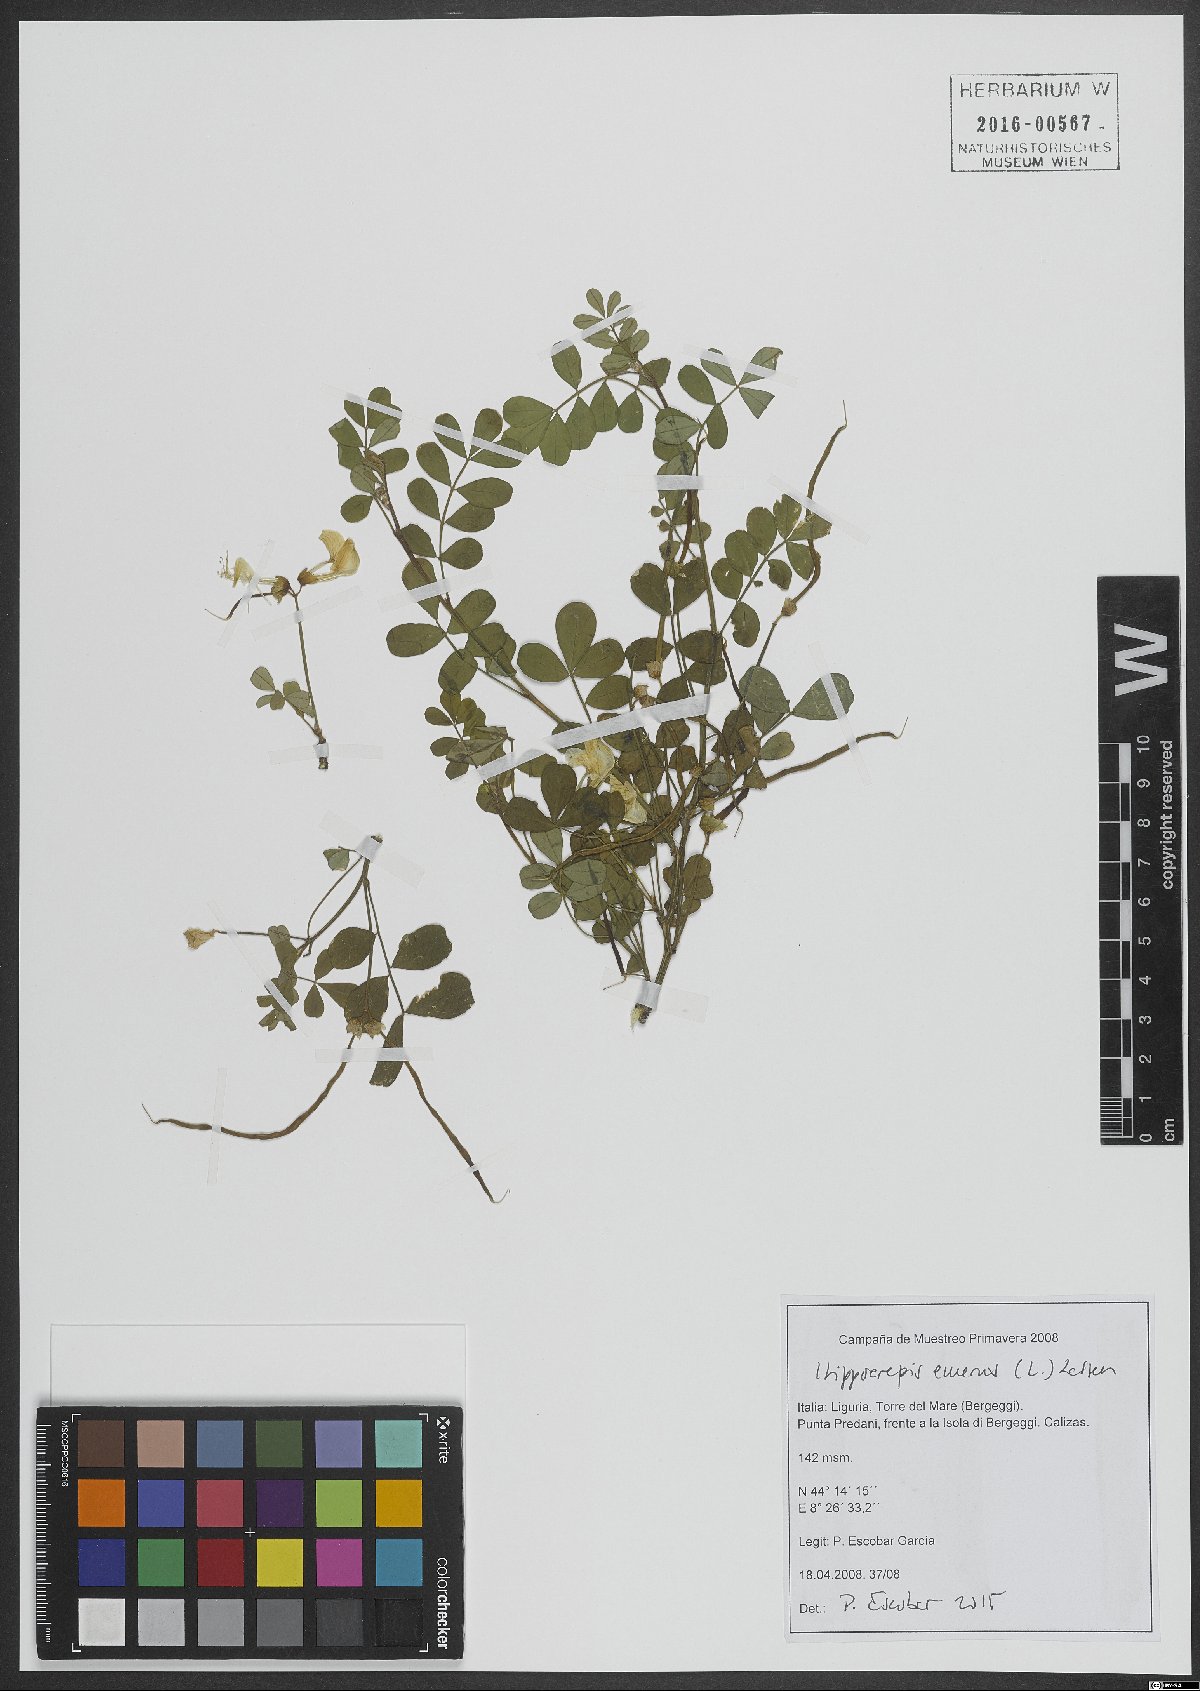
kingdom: Plantae
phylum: Tracheophyta
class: Magnoliopsida
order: Fabales
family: Fabaceae
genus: Hippocrepis
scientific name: Hippocrepis emerus
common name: Scorpion senna
